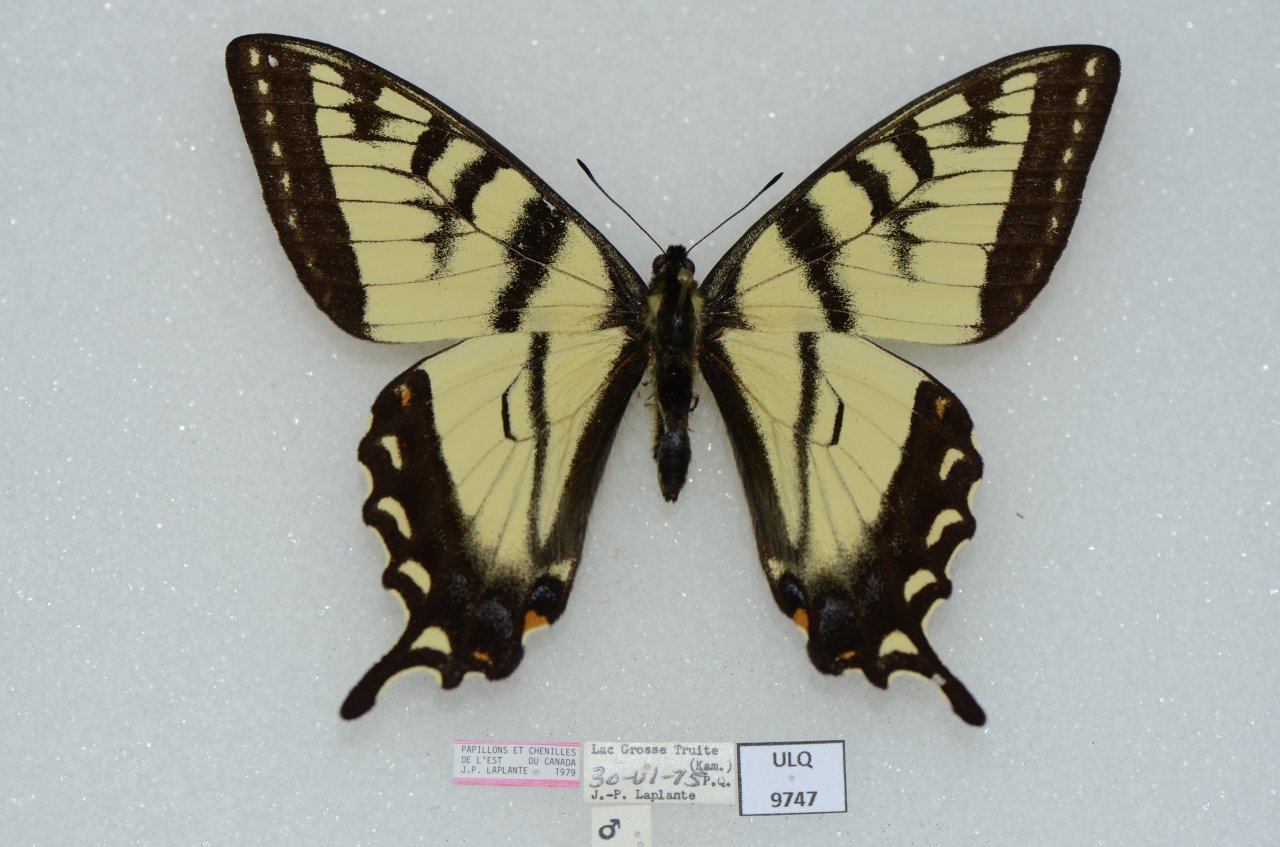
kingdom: Animalia
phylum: Arthropoda
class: Insecta
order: Lepidoptera
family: Papilionidae
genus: Pterourus
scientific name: Pterourus canadensis
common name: Canadian Tiger Swallowtail
